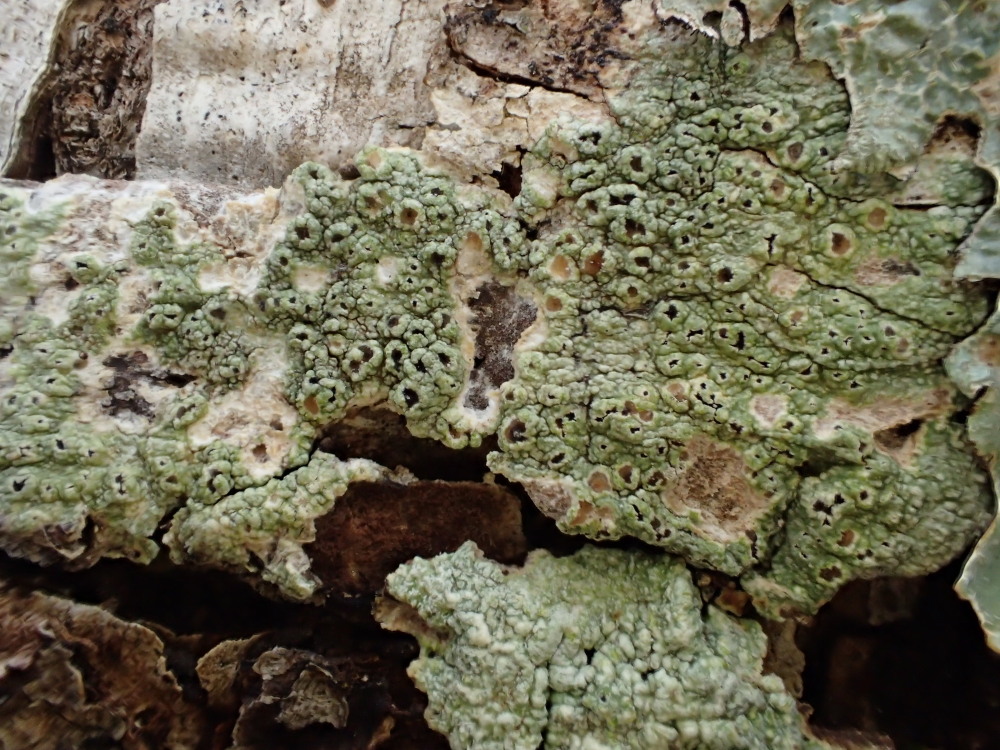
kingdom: Fungi
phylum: Ascomycota
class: Lecanoromycetes
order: Pertusariales
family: Pertusariaceae
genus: Pertusaria
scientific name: Pertusaria hymenea
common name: åben prikvortelav
